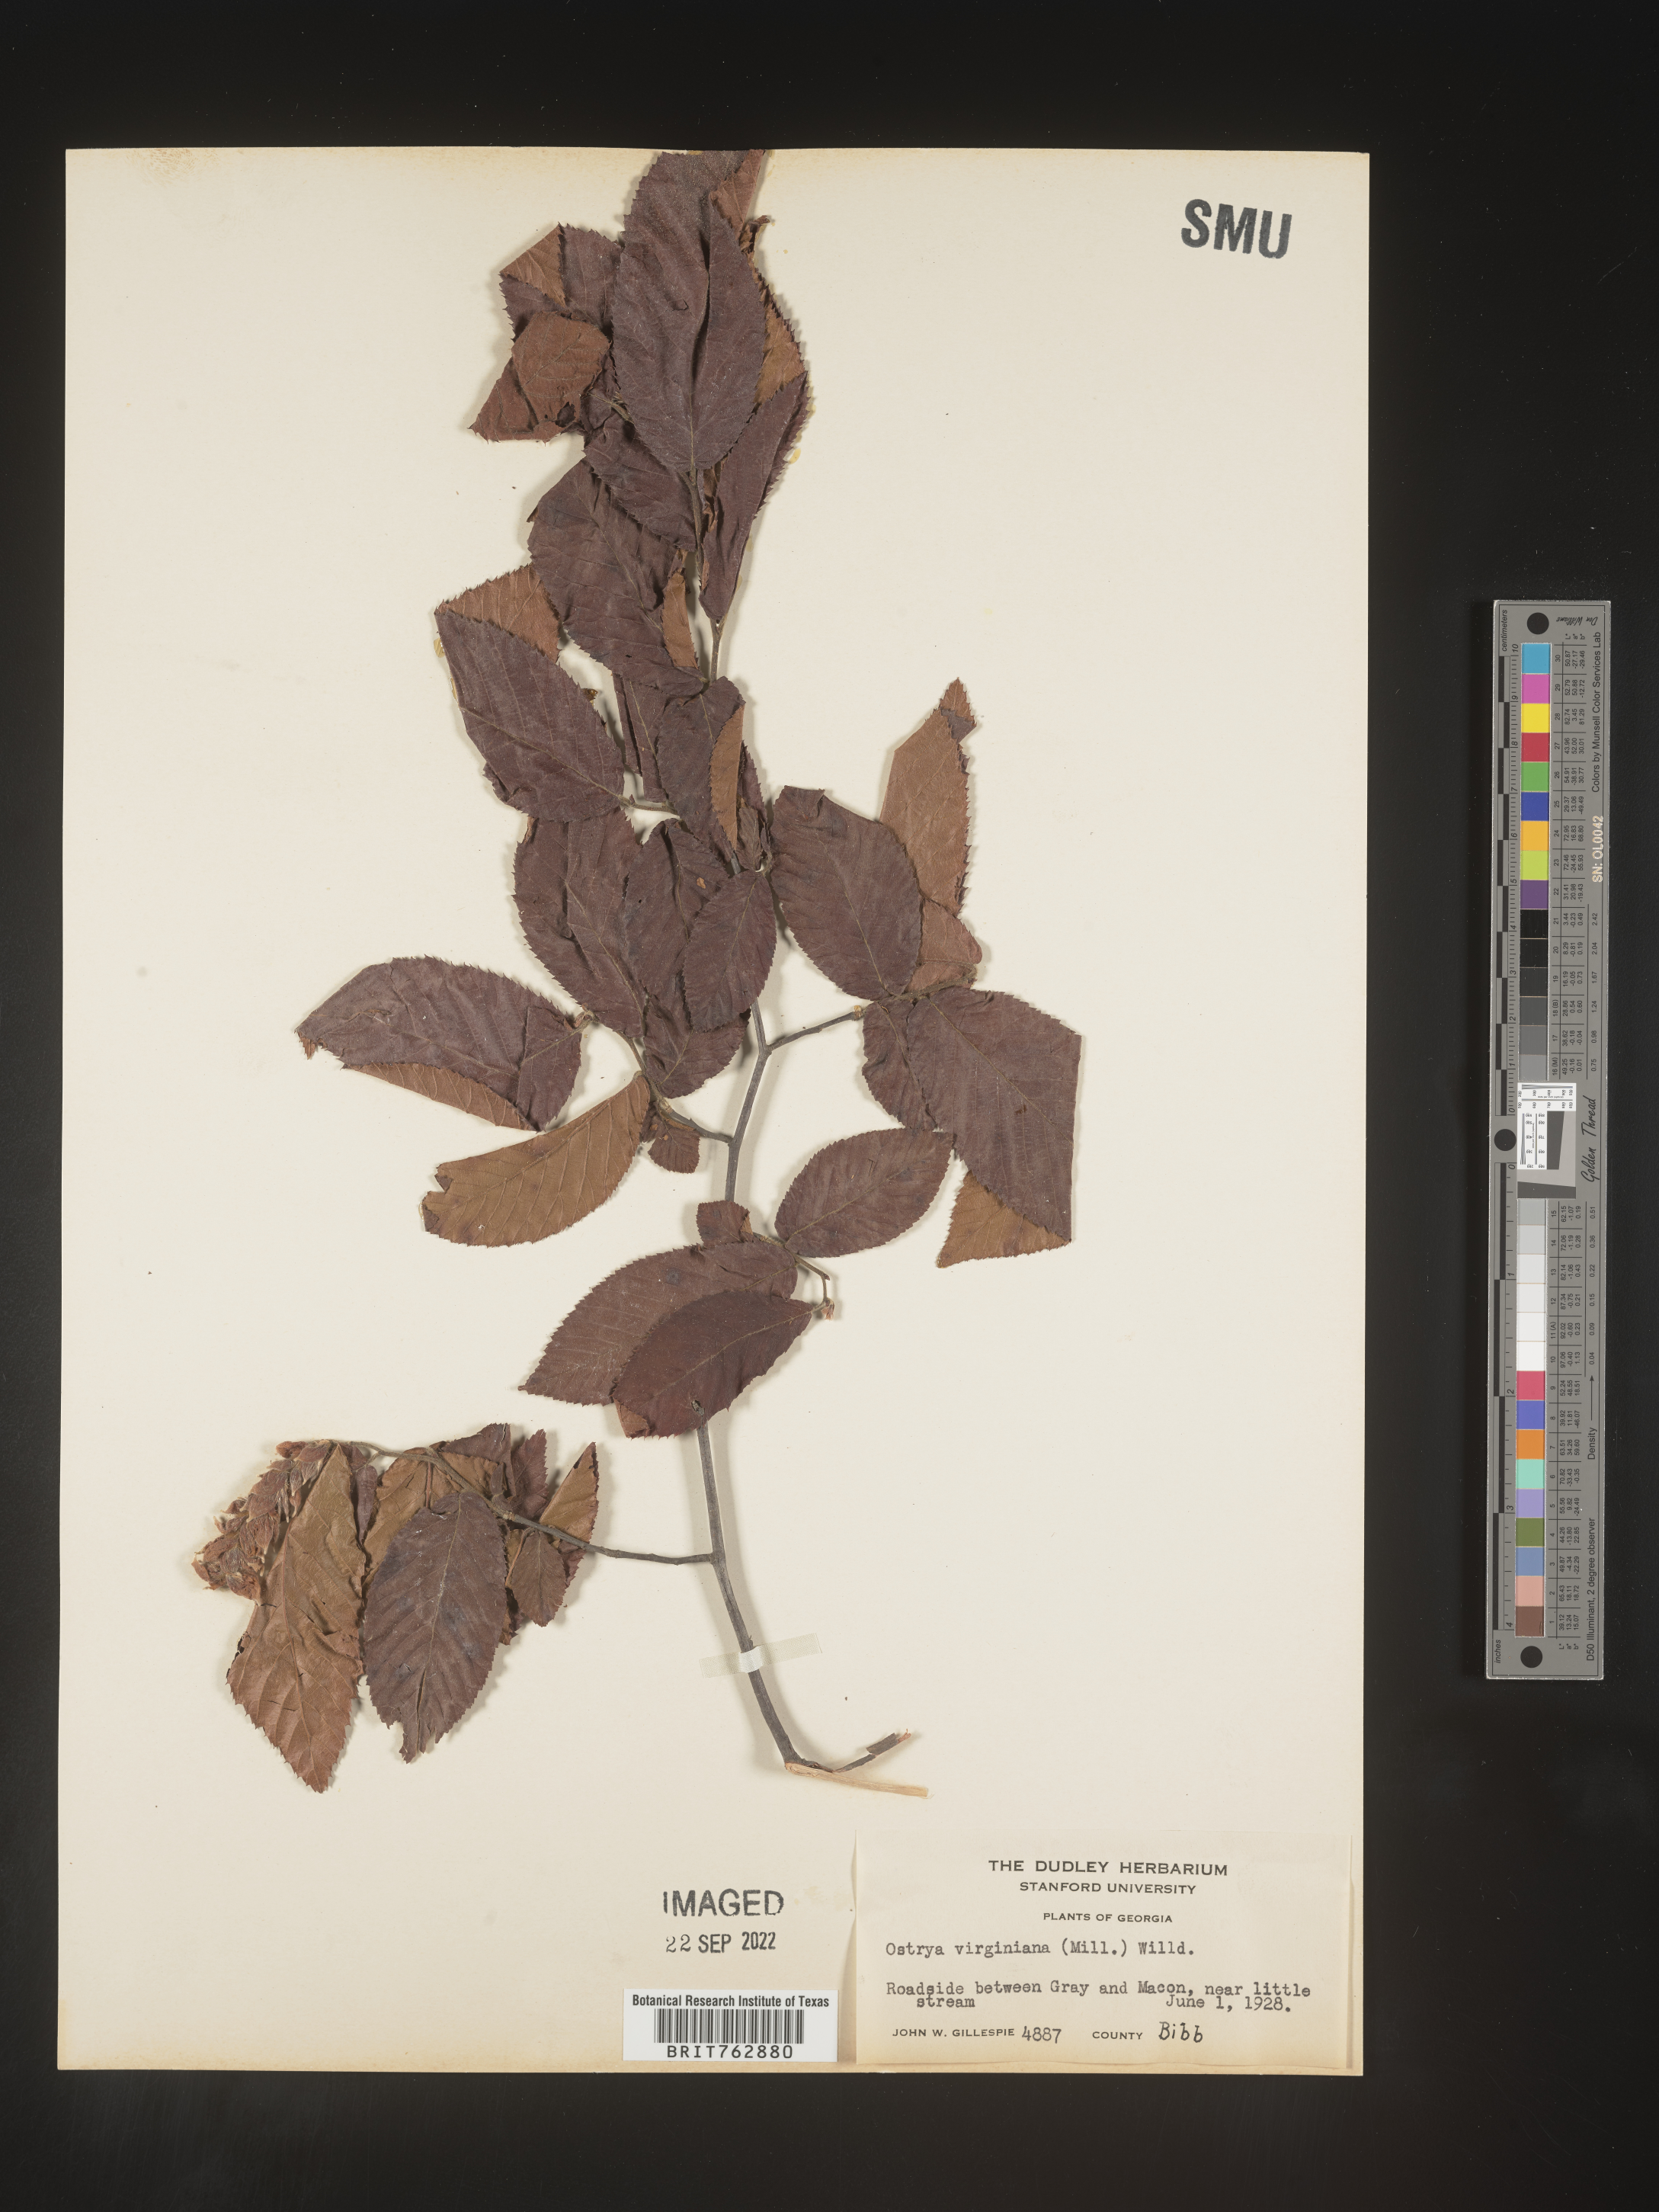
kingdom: Plantae
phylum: Tracheophyta
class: Magnoliopsida
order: Fagales
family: Betulaceae
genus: Ostrya
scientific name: Ostrya virginiana
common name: Ironwood
